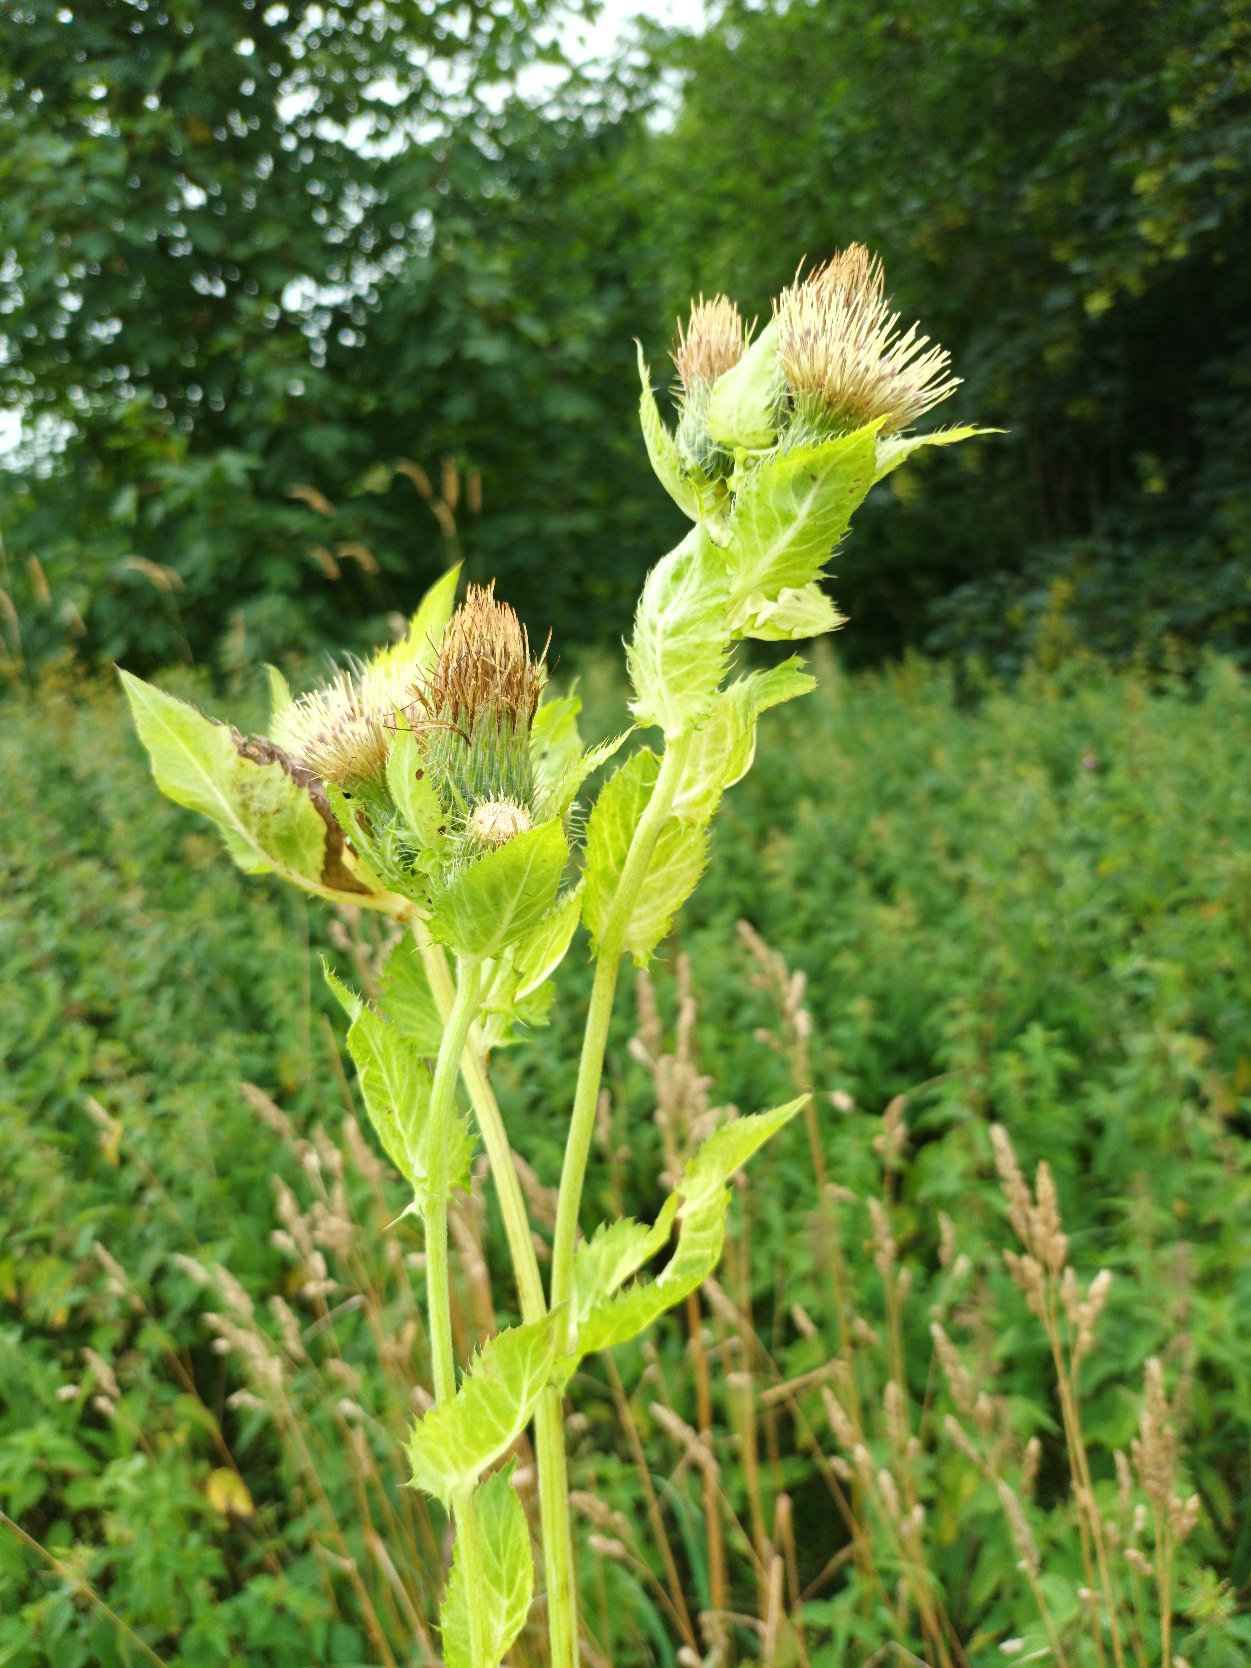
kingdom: Plantae
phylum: Tracheophyta
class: Magnoliopsida
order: Asterales
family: Asteraceae
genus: Cirsium
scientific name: Cirsium oleraceum
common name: Kål-tidsel
